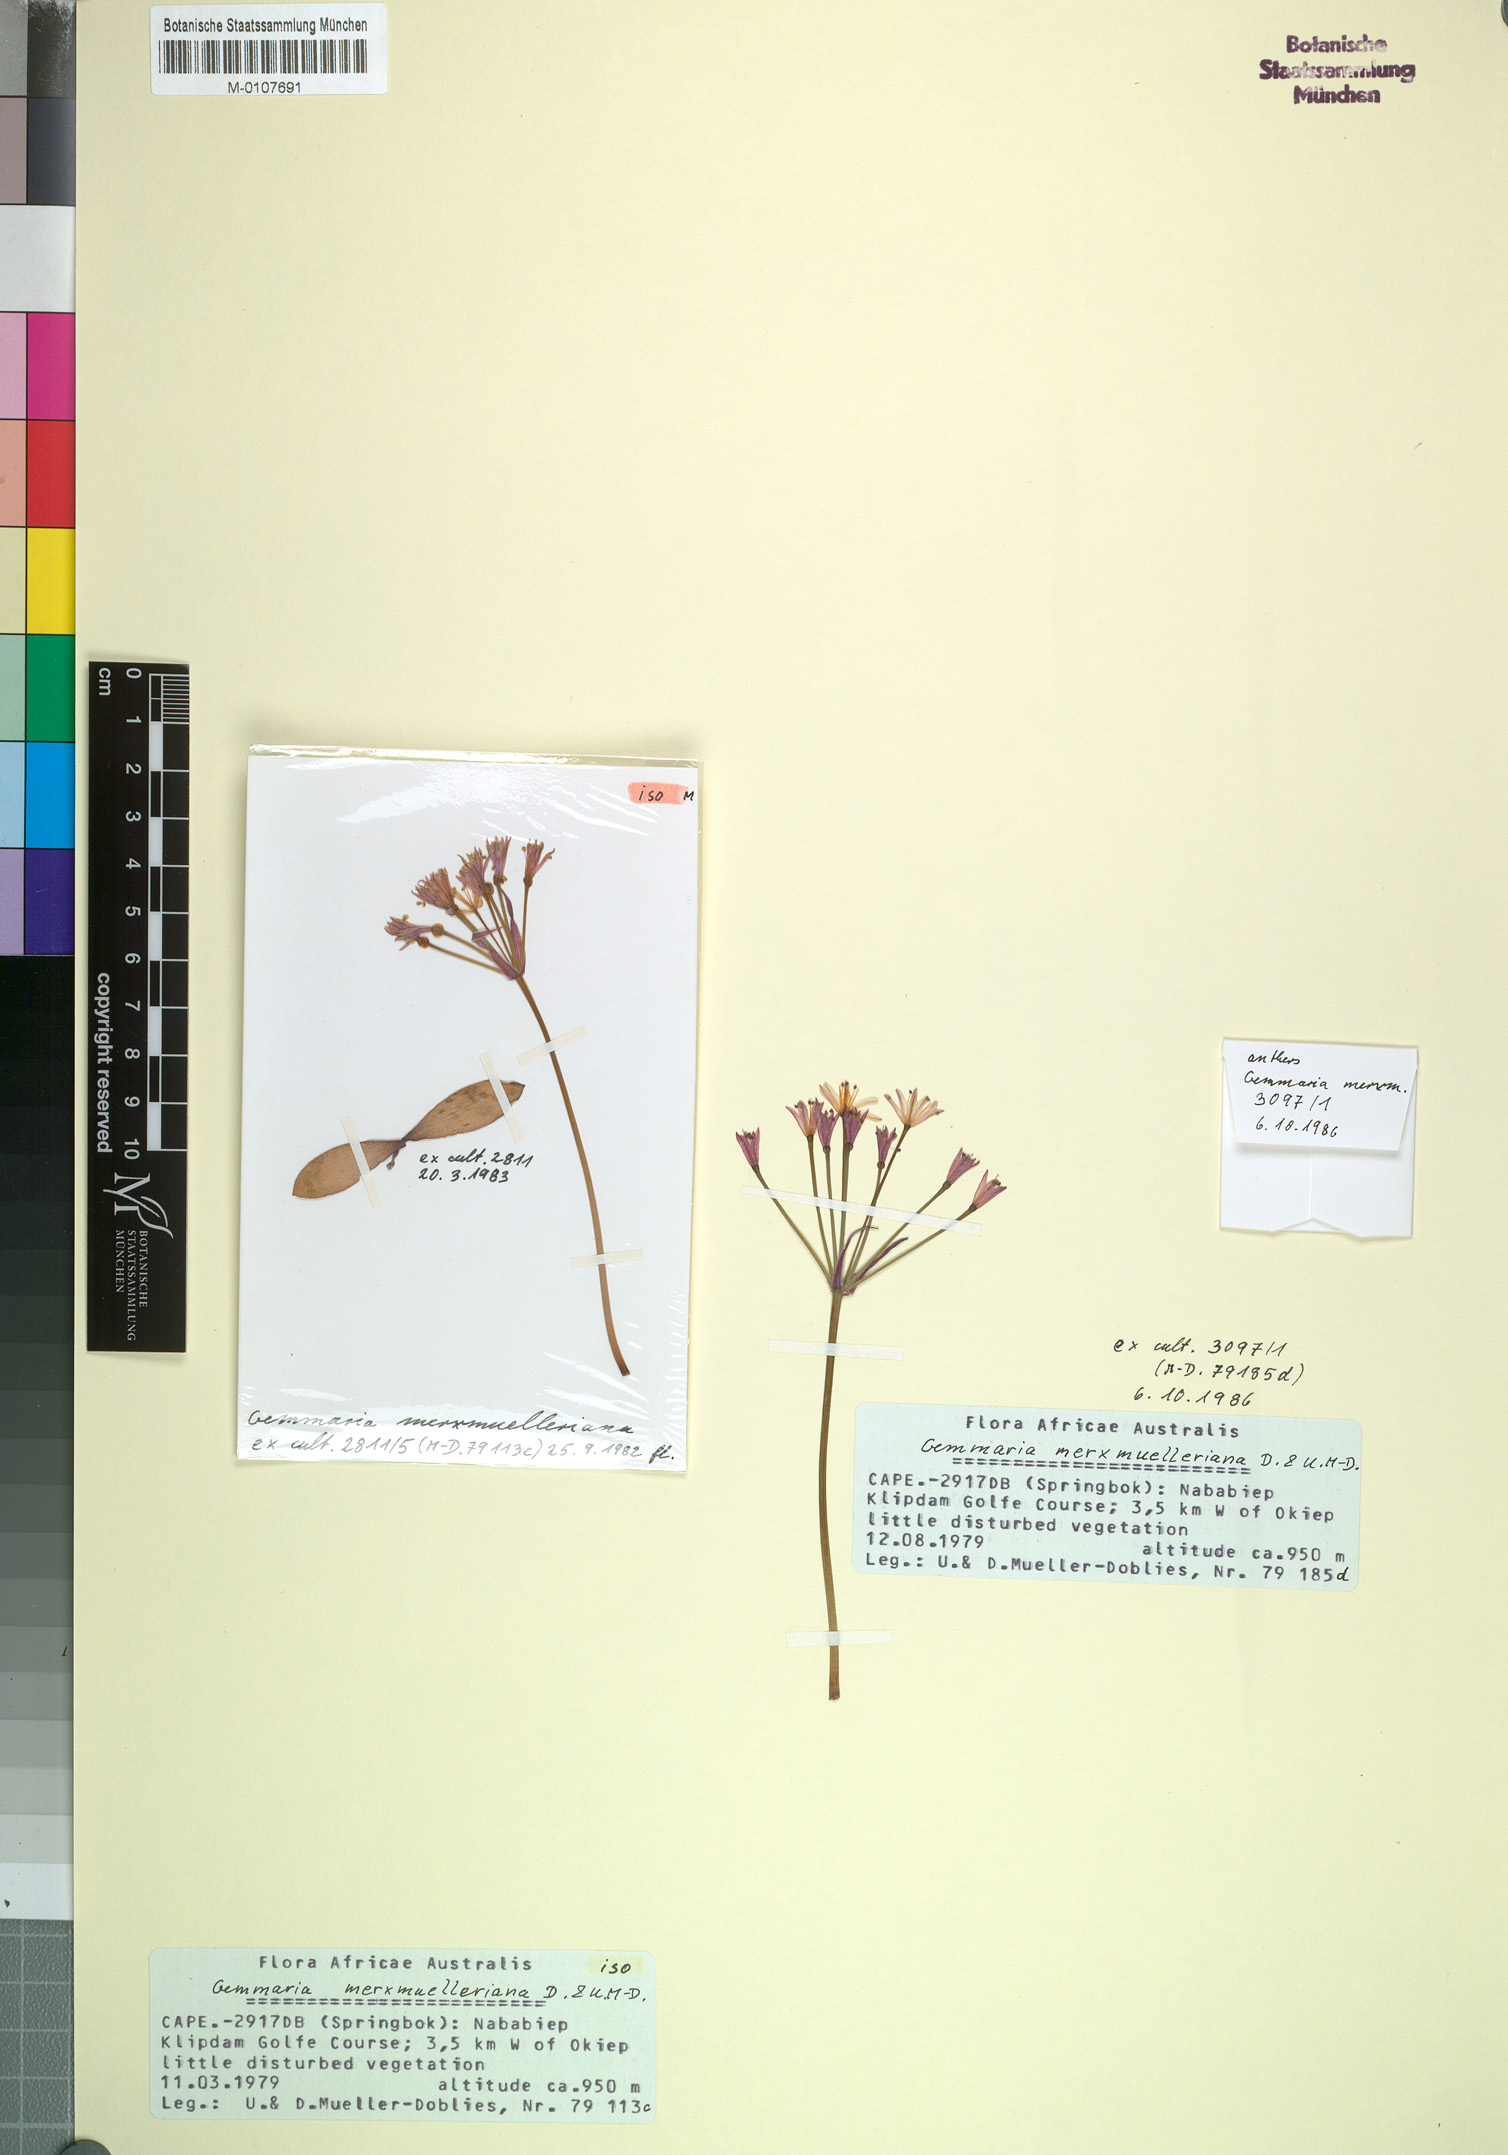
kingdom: Plantae
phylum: Tracheophyta
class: Liliopsida
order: Asparagales
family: Amaryllidaceae
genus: Strumaria
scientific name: Strumaria merxmuelleriana
